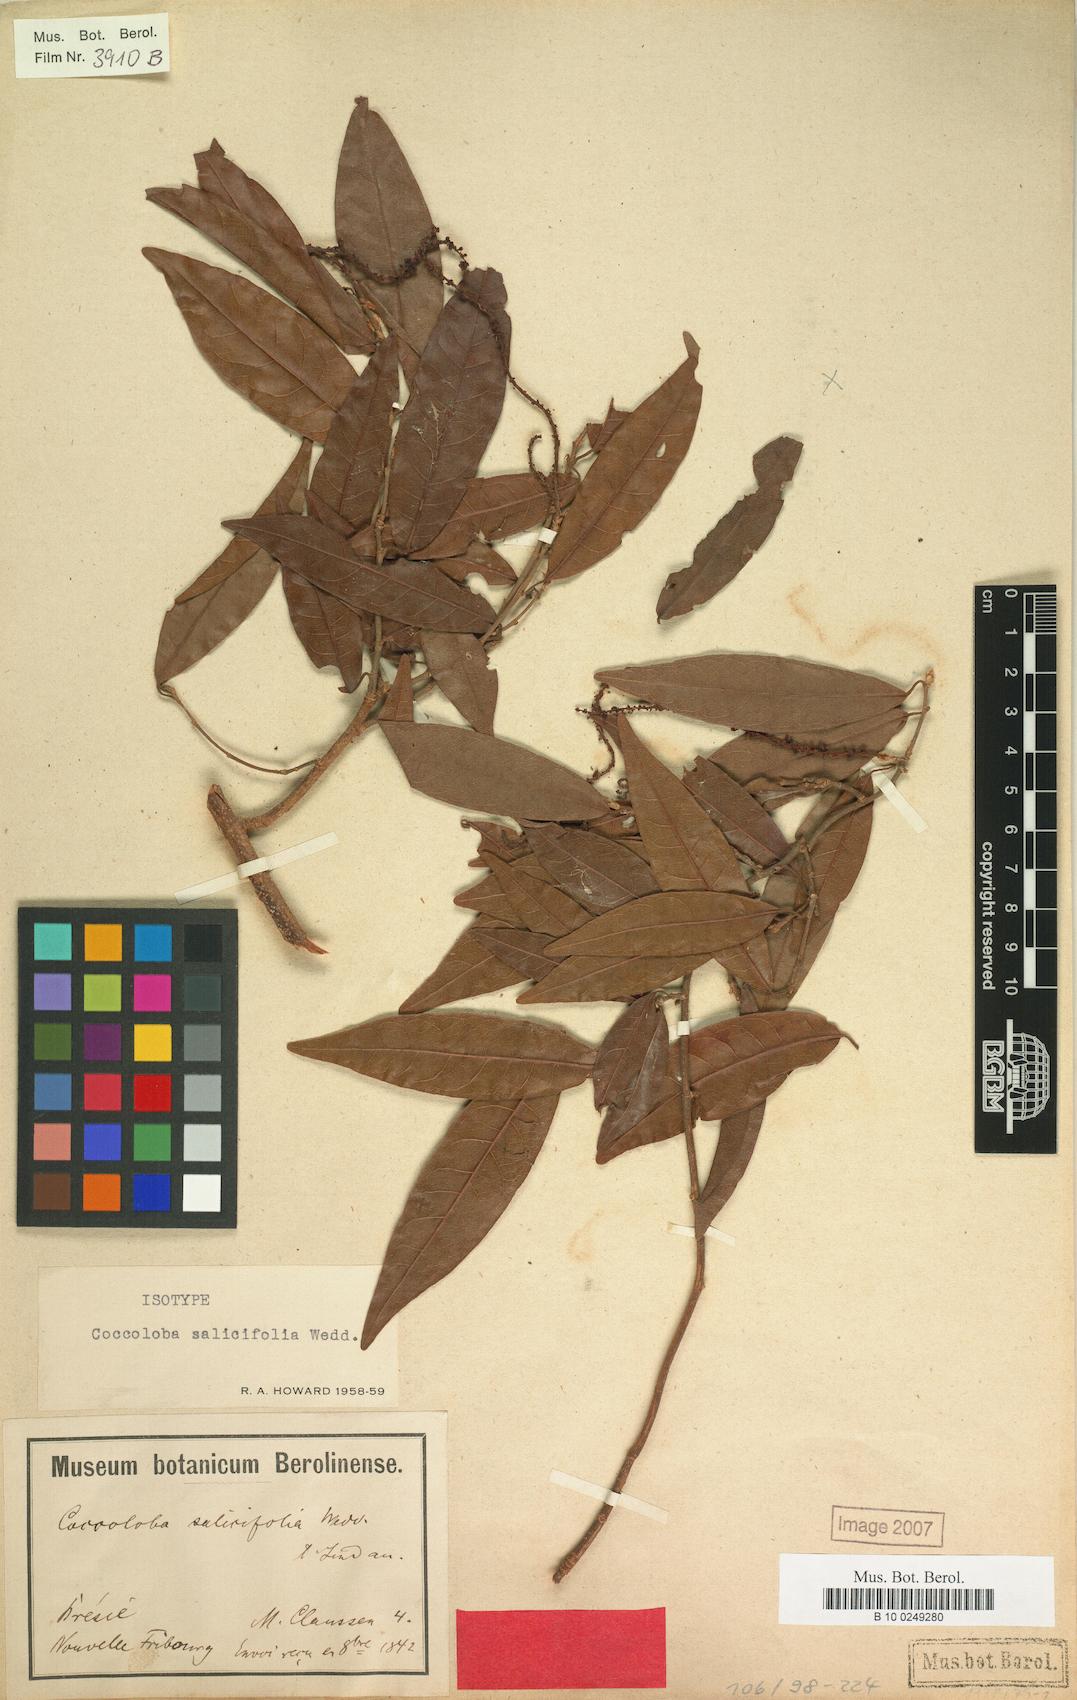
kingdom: Plantae
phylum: Tracheophyta
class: Magnoliopsida
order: Caryophyllales
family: Polygonaceae
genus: Coccoloba
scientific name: Coccoloba salicifolia
